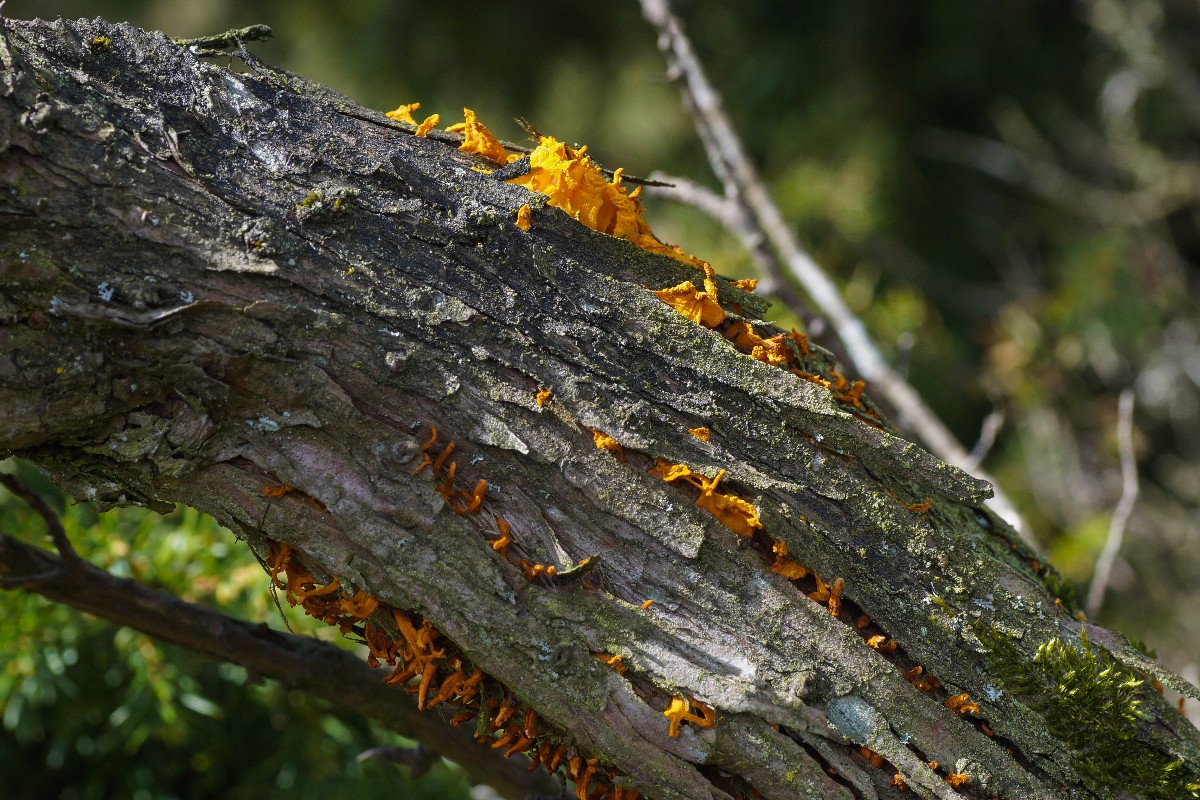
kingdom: Fungi
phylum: Basidiomycota
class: Pucciniomycetes
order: Pucciniales
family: Gymnosporangiaceae
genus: Gymnosporangium
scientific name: Gymnosporangium clavariiforme
